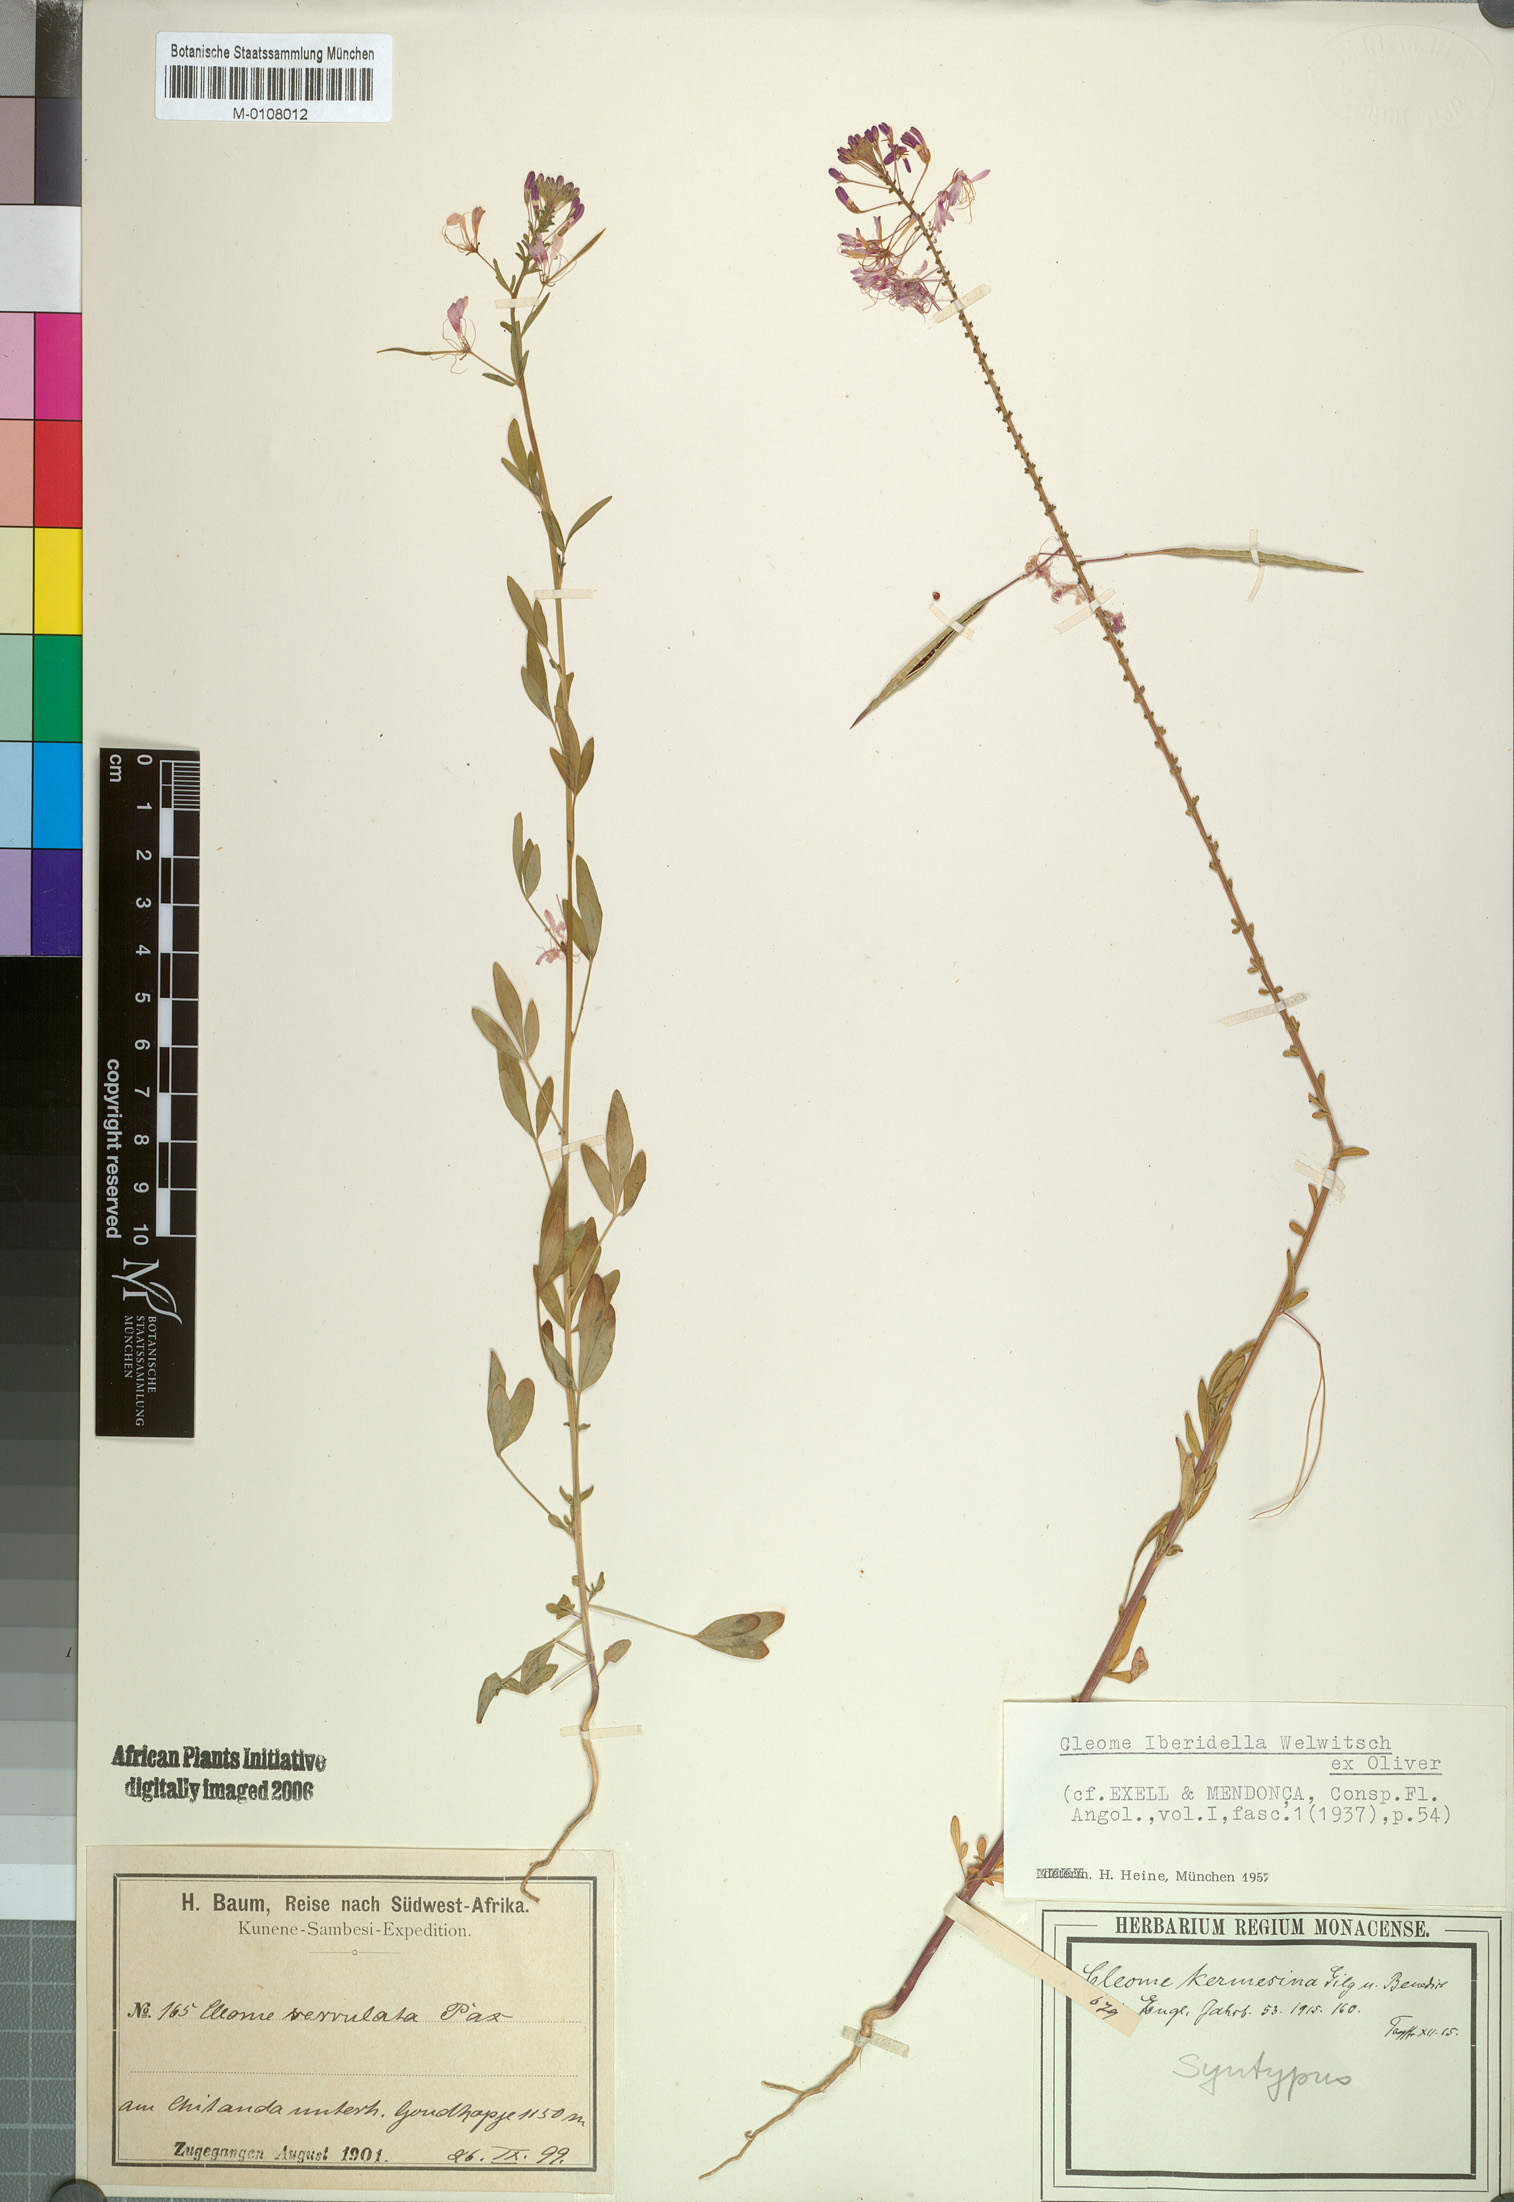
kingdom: Plantae
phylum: Tracheophyta
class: Magnoliopsida
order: Brassicales
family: Cleomaceae
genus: Sieruela
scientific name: Sieruela iberidella
